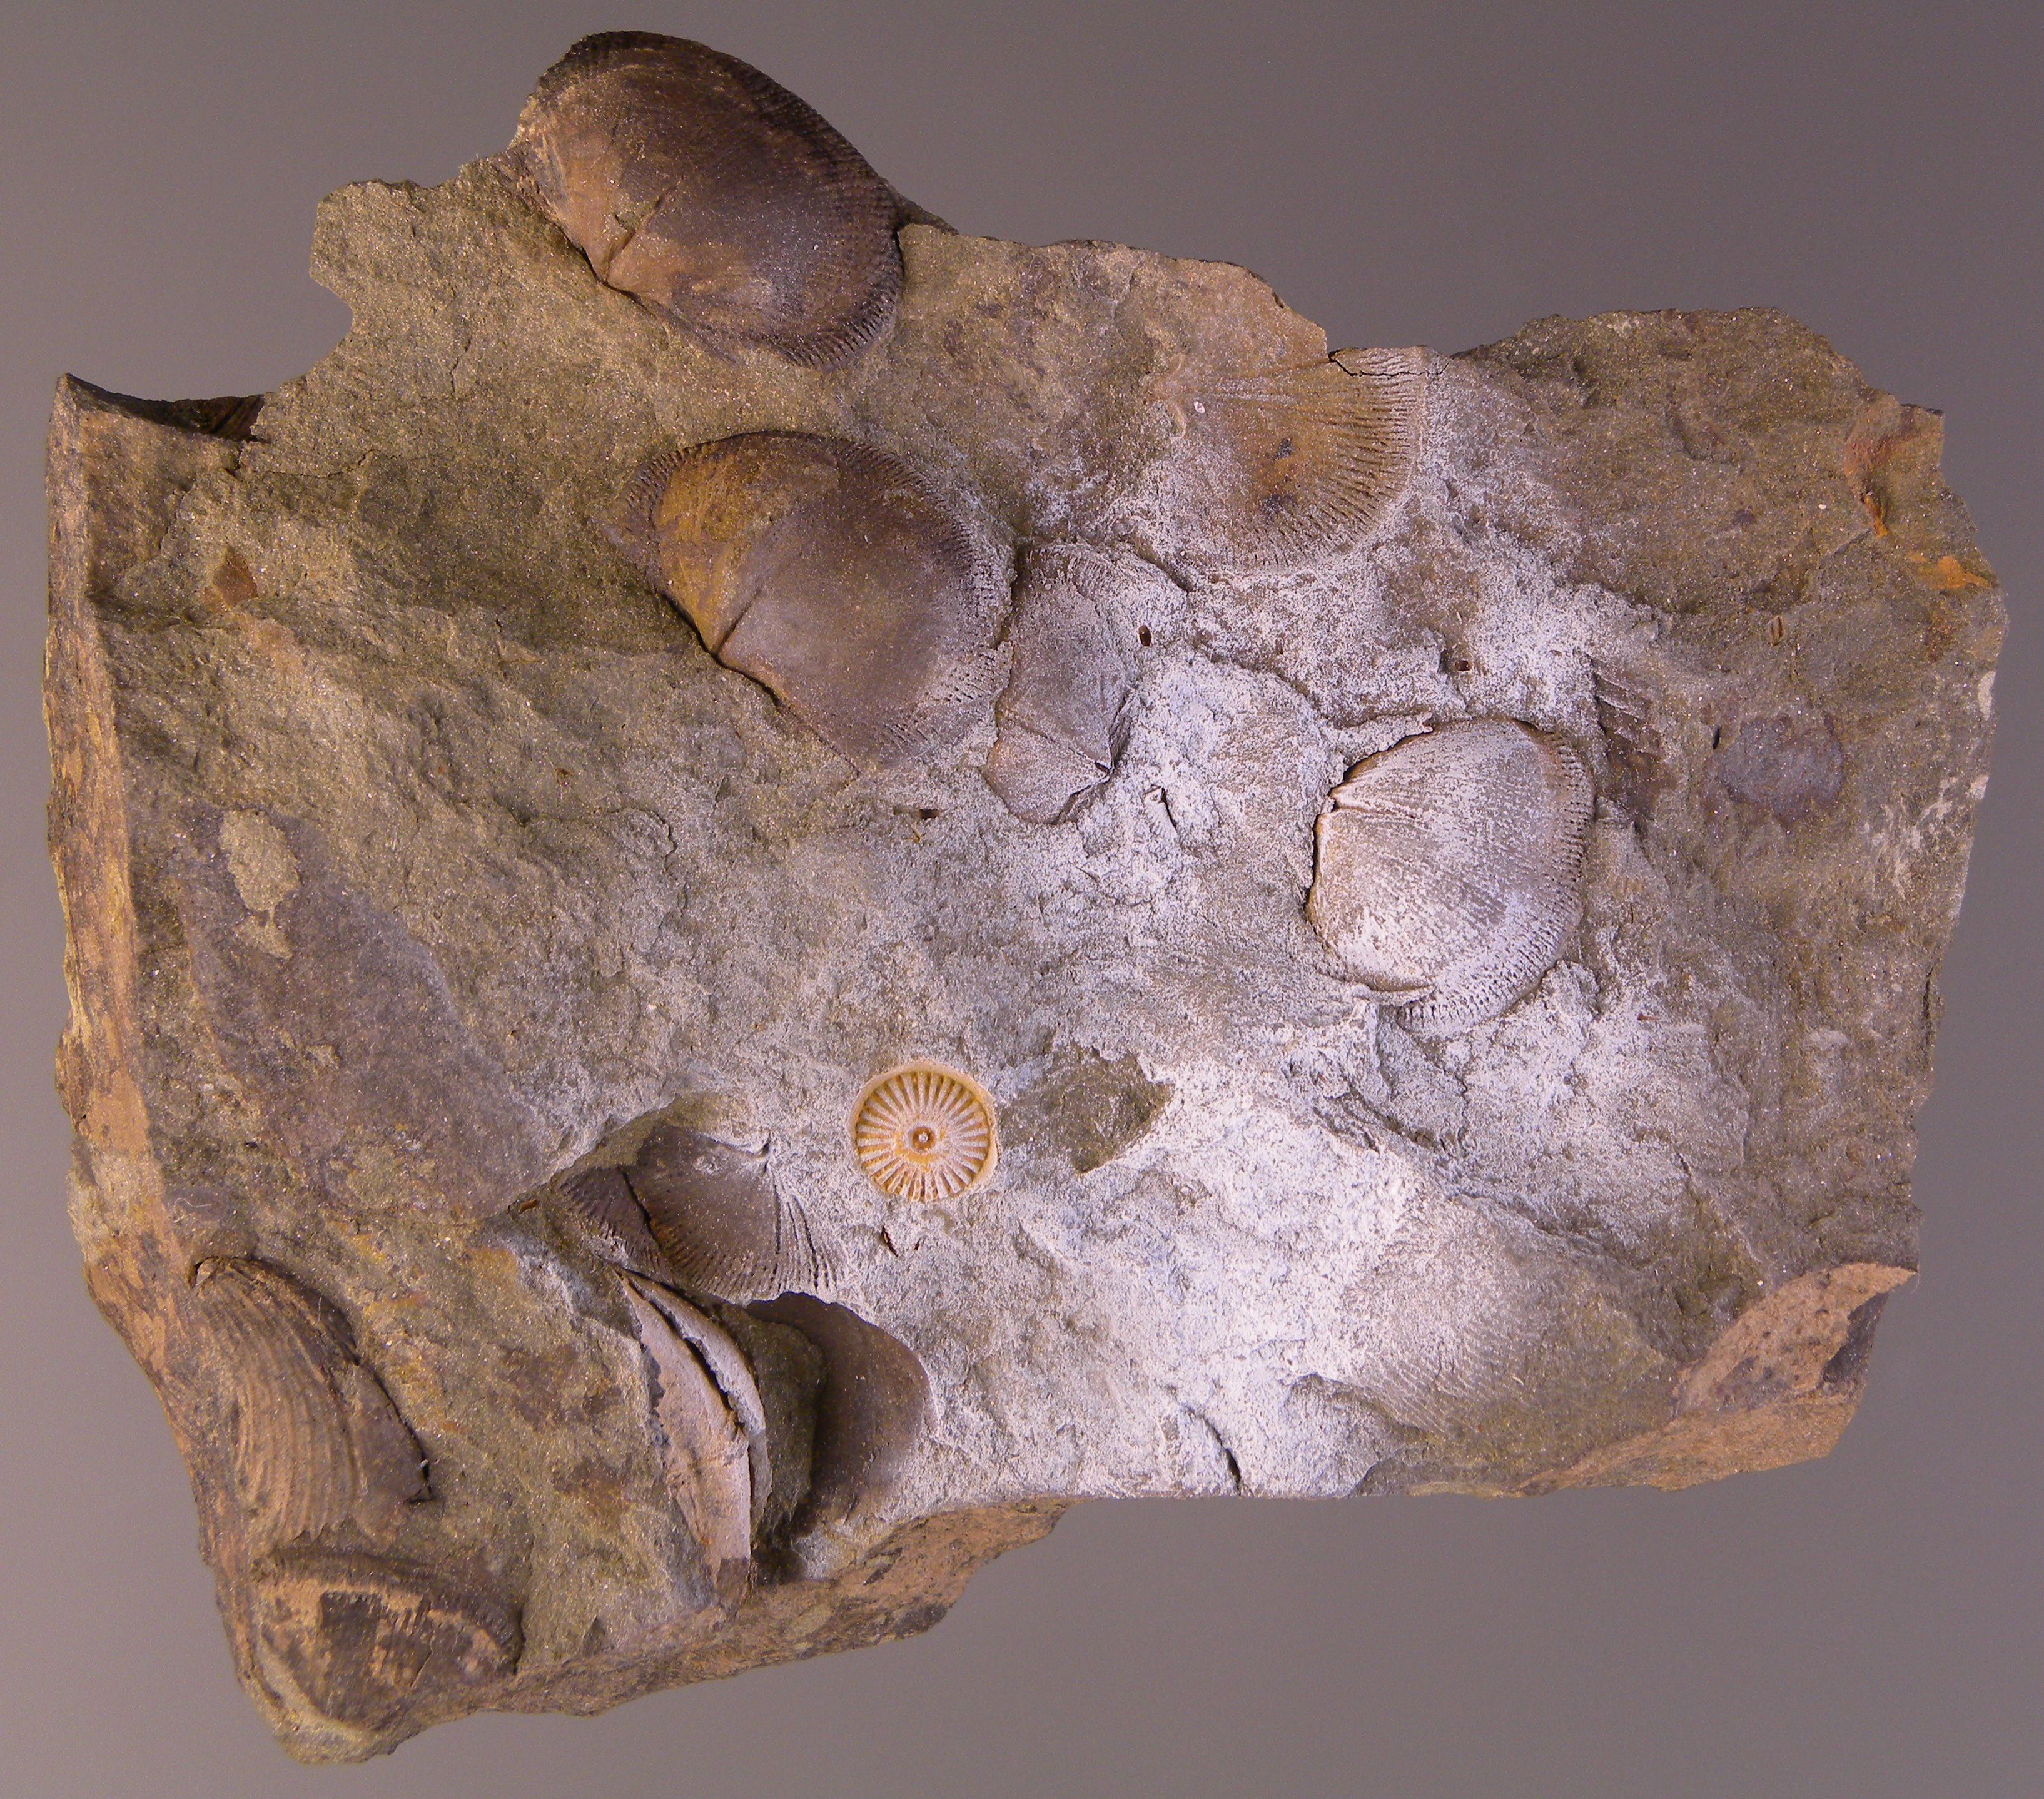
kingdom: Animalia
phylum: Echinodermata
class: Crinoidea
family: Flucticharacidae
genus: Laudonomphalus
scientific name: Laudonomphalus
